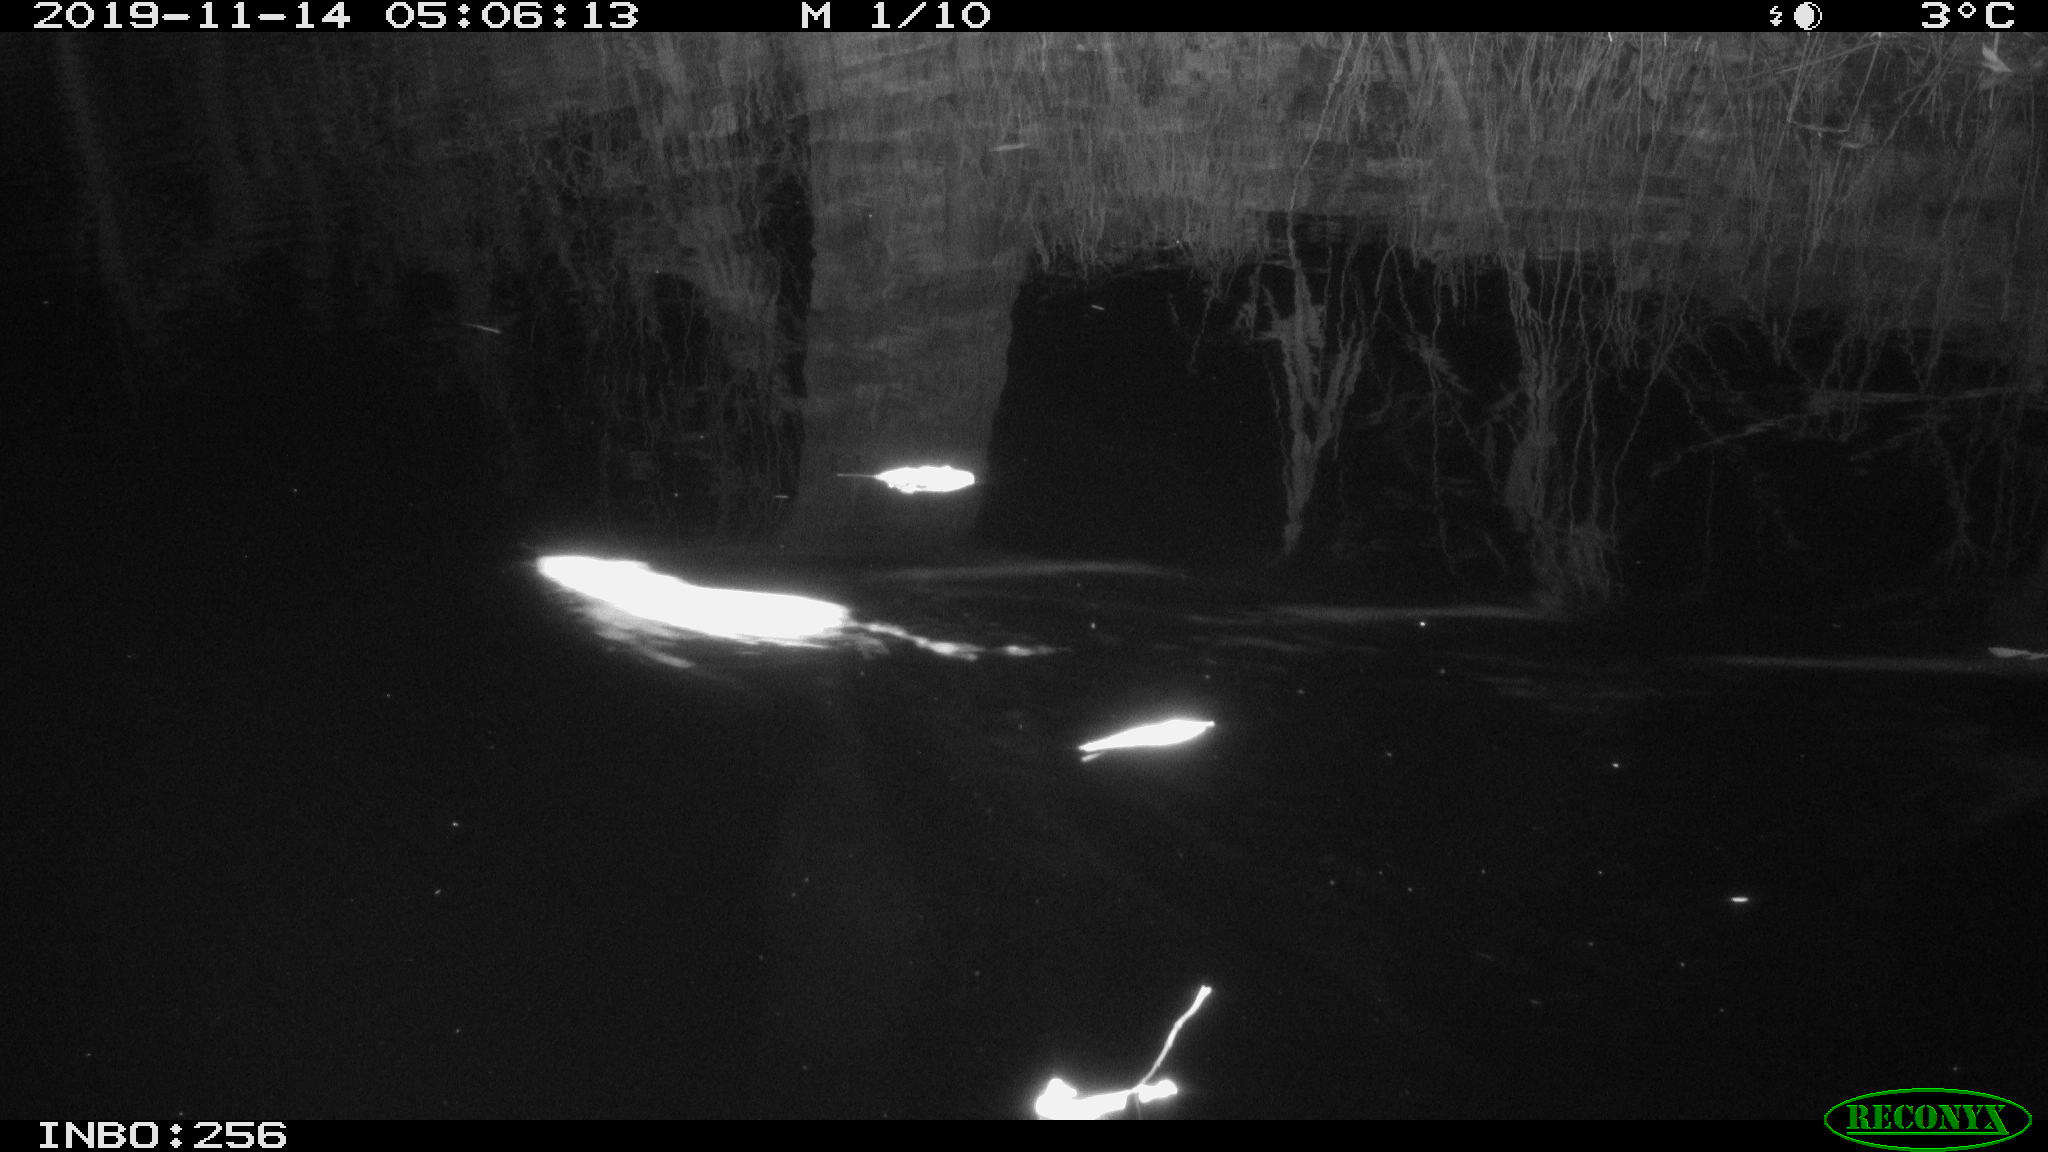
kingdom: Animalia
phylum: Chordata
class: Mammalia
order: Rodentia
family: Muridae
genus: Rattus
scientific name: Rattus norvegicus
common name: Brown rat
